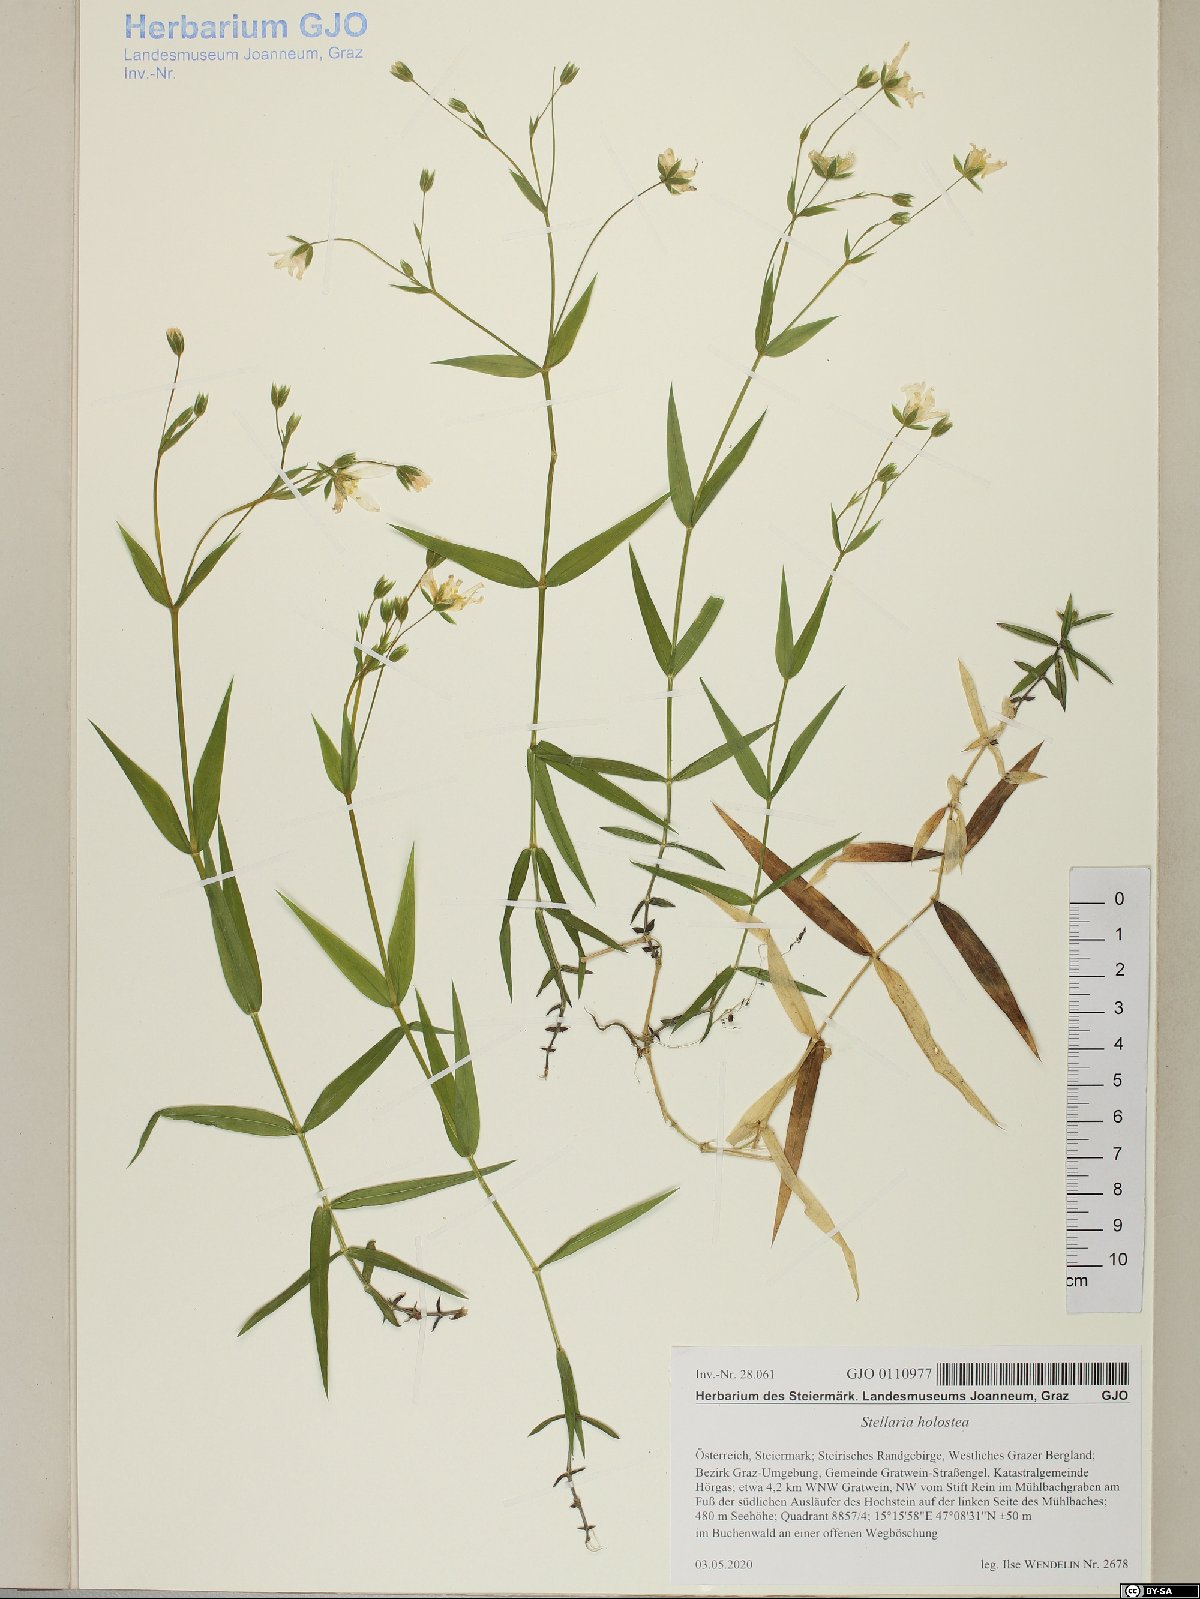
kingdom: Plantae
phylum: Tracheophyta
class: Magnoliopsida
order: Caryophyllales
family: Caryophyllaceae
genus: Rabelera
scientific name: Rabelera holostea
